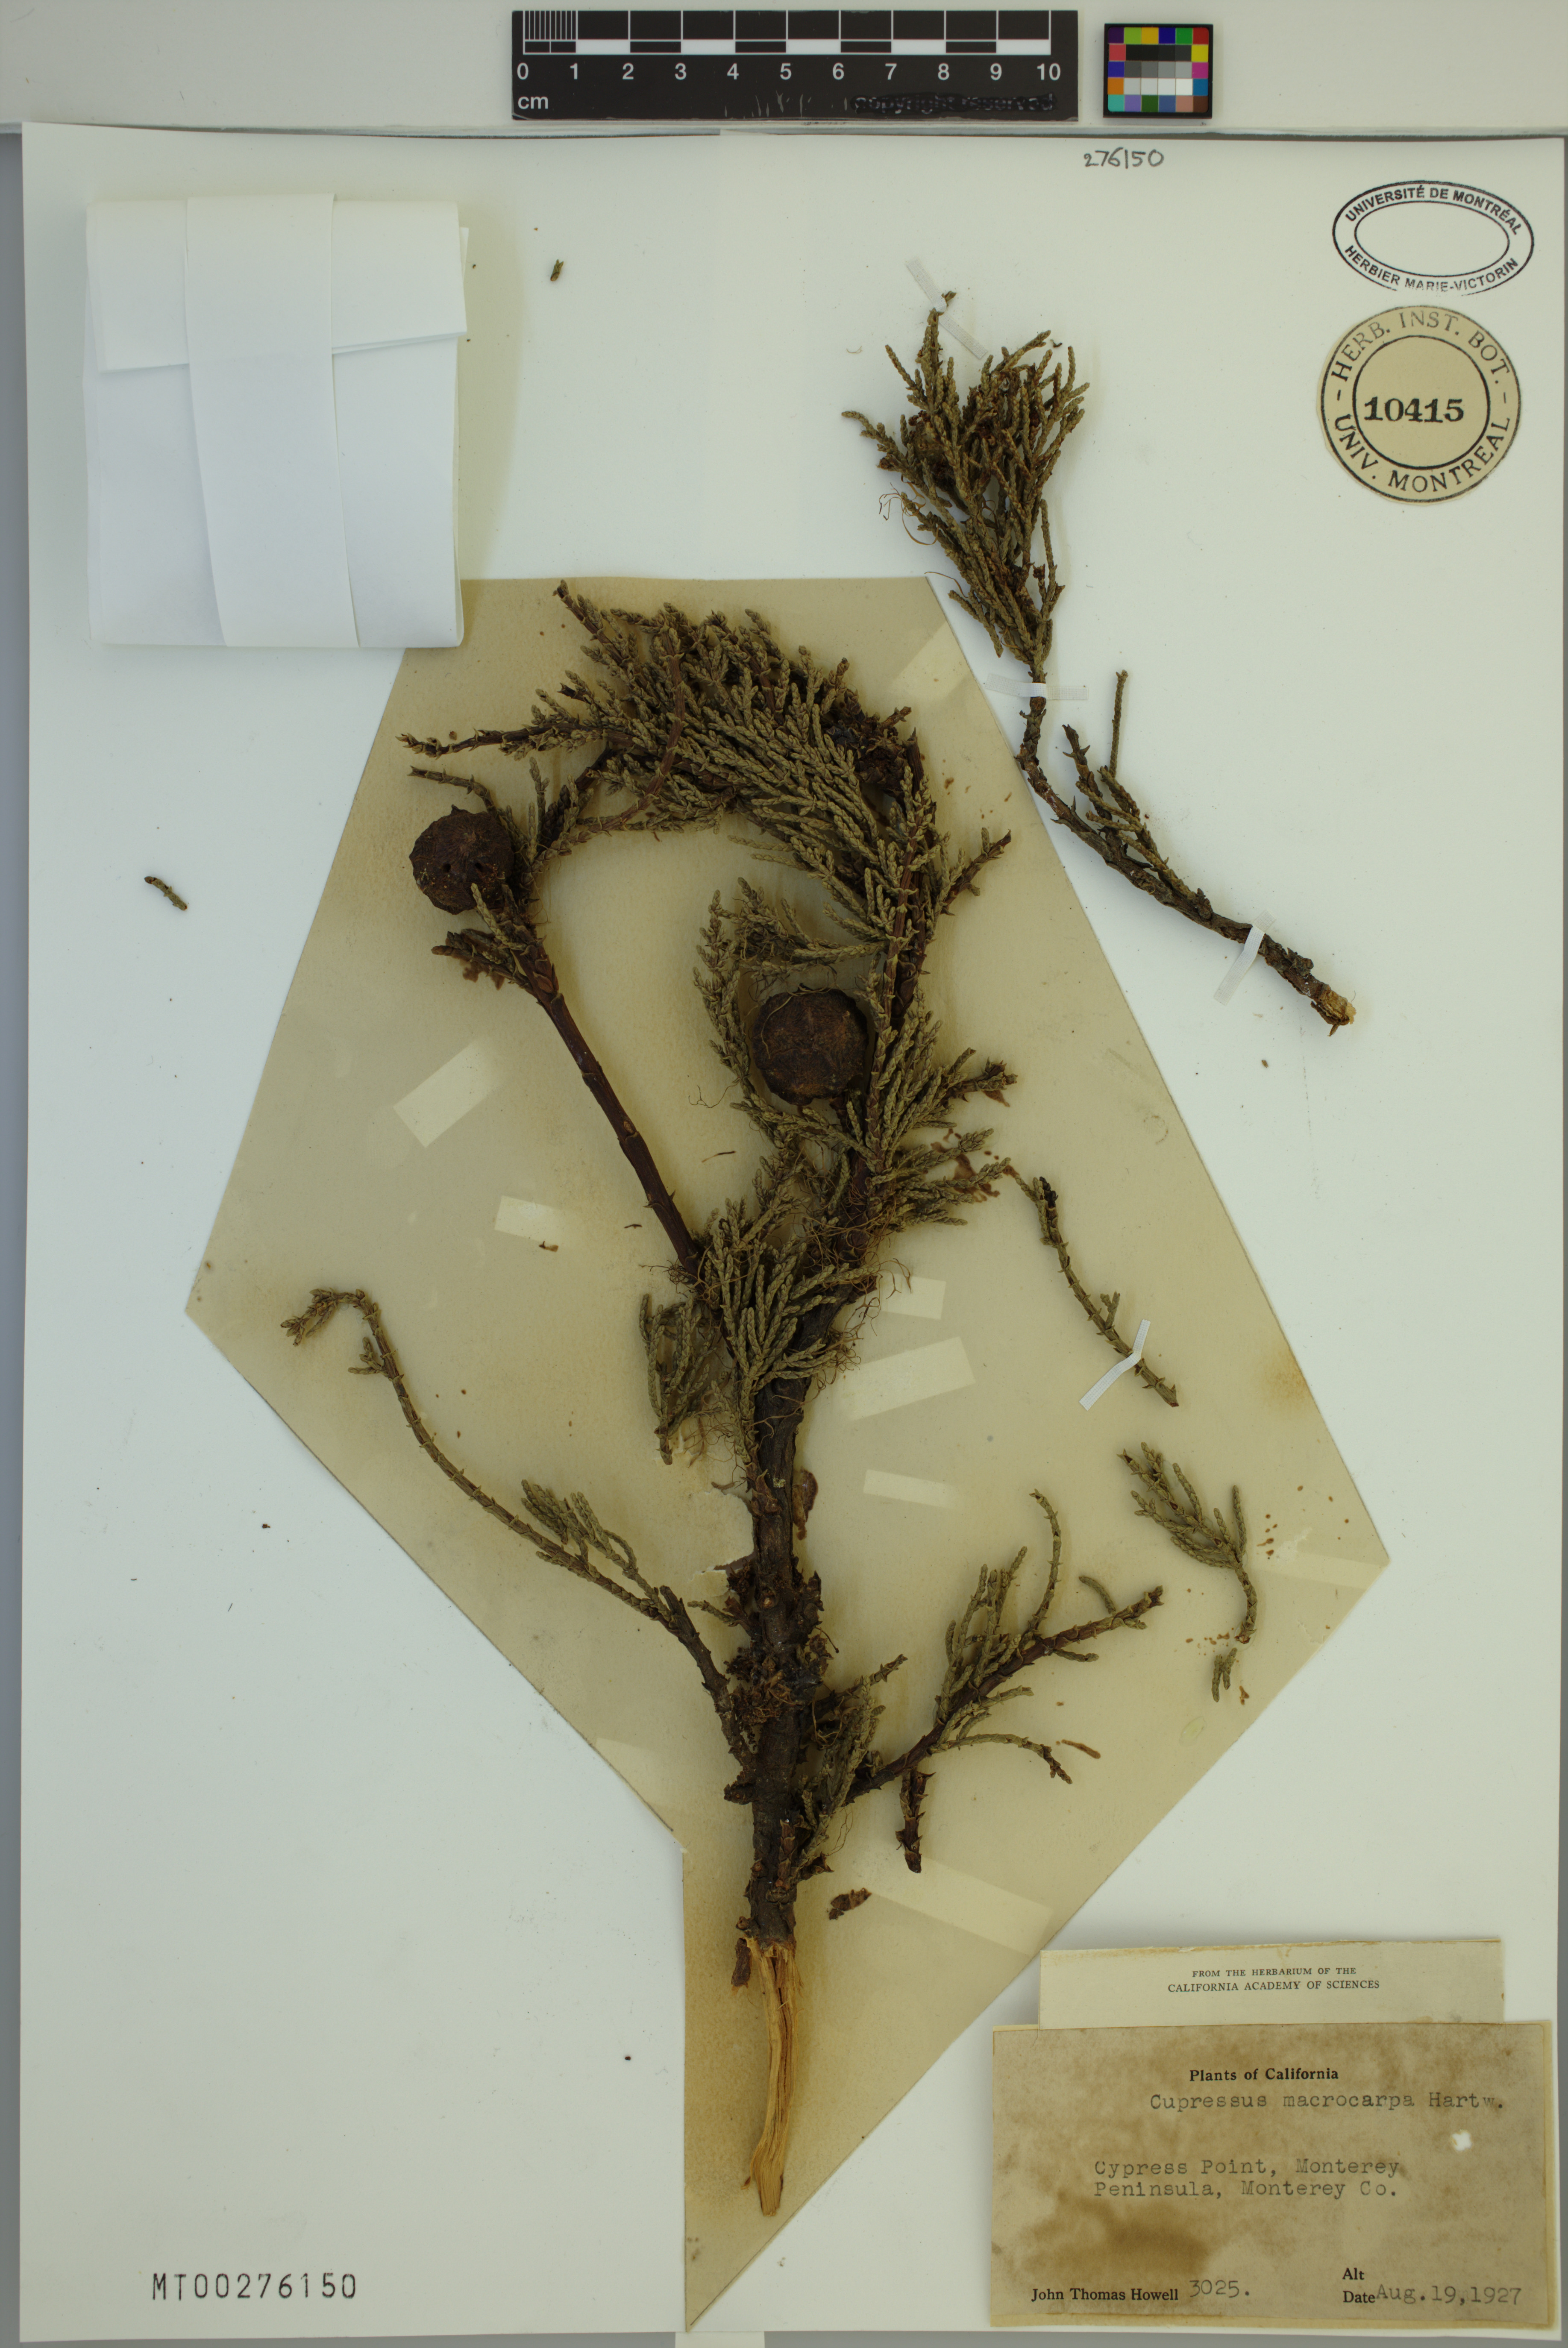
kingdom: Plantae
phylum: Tracheophyta
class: Pinopsida
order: Pinales
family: Cupressaceae
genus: Cupressus
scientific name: Cupressus macrocarpa
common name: Monterey cypress
